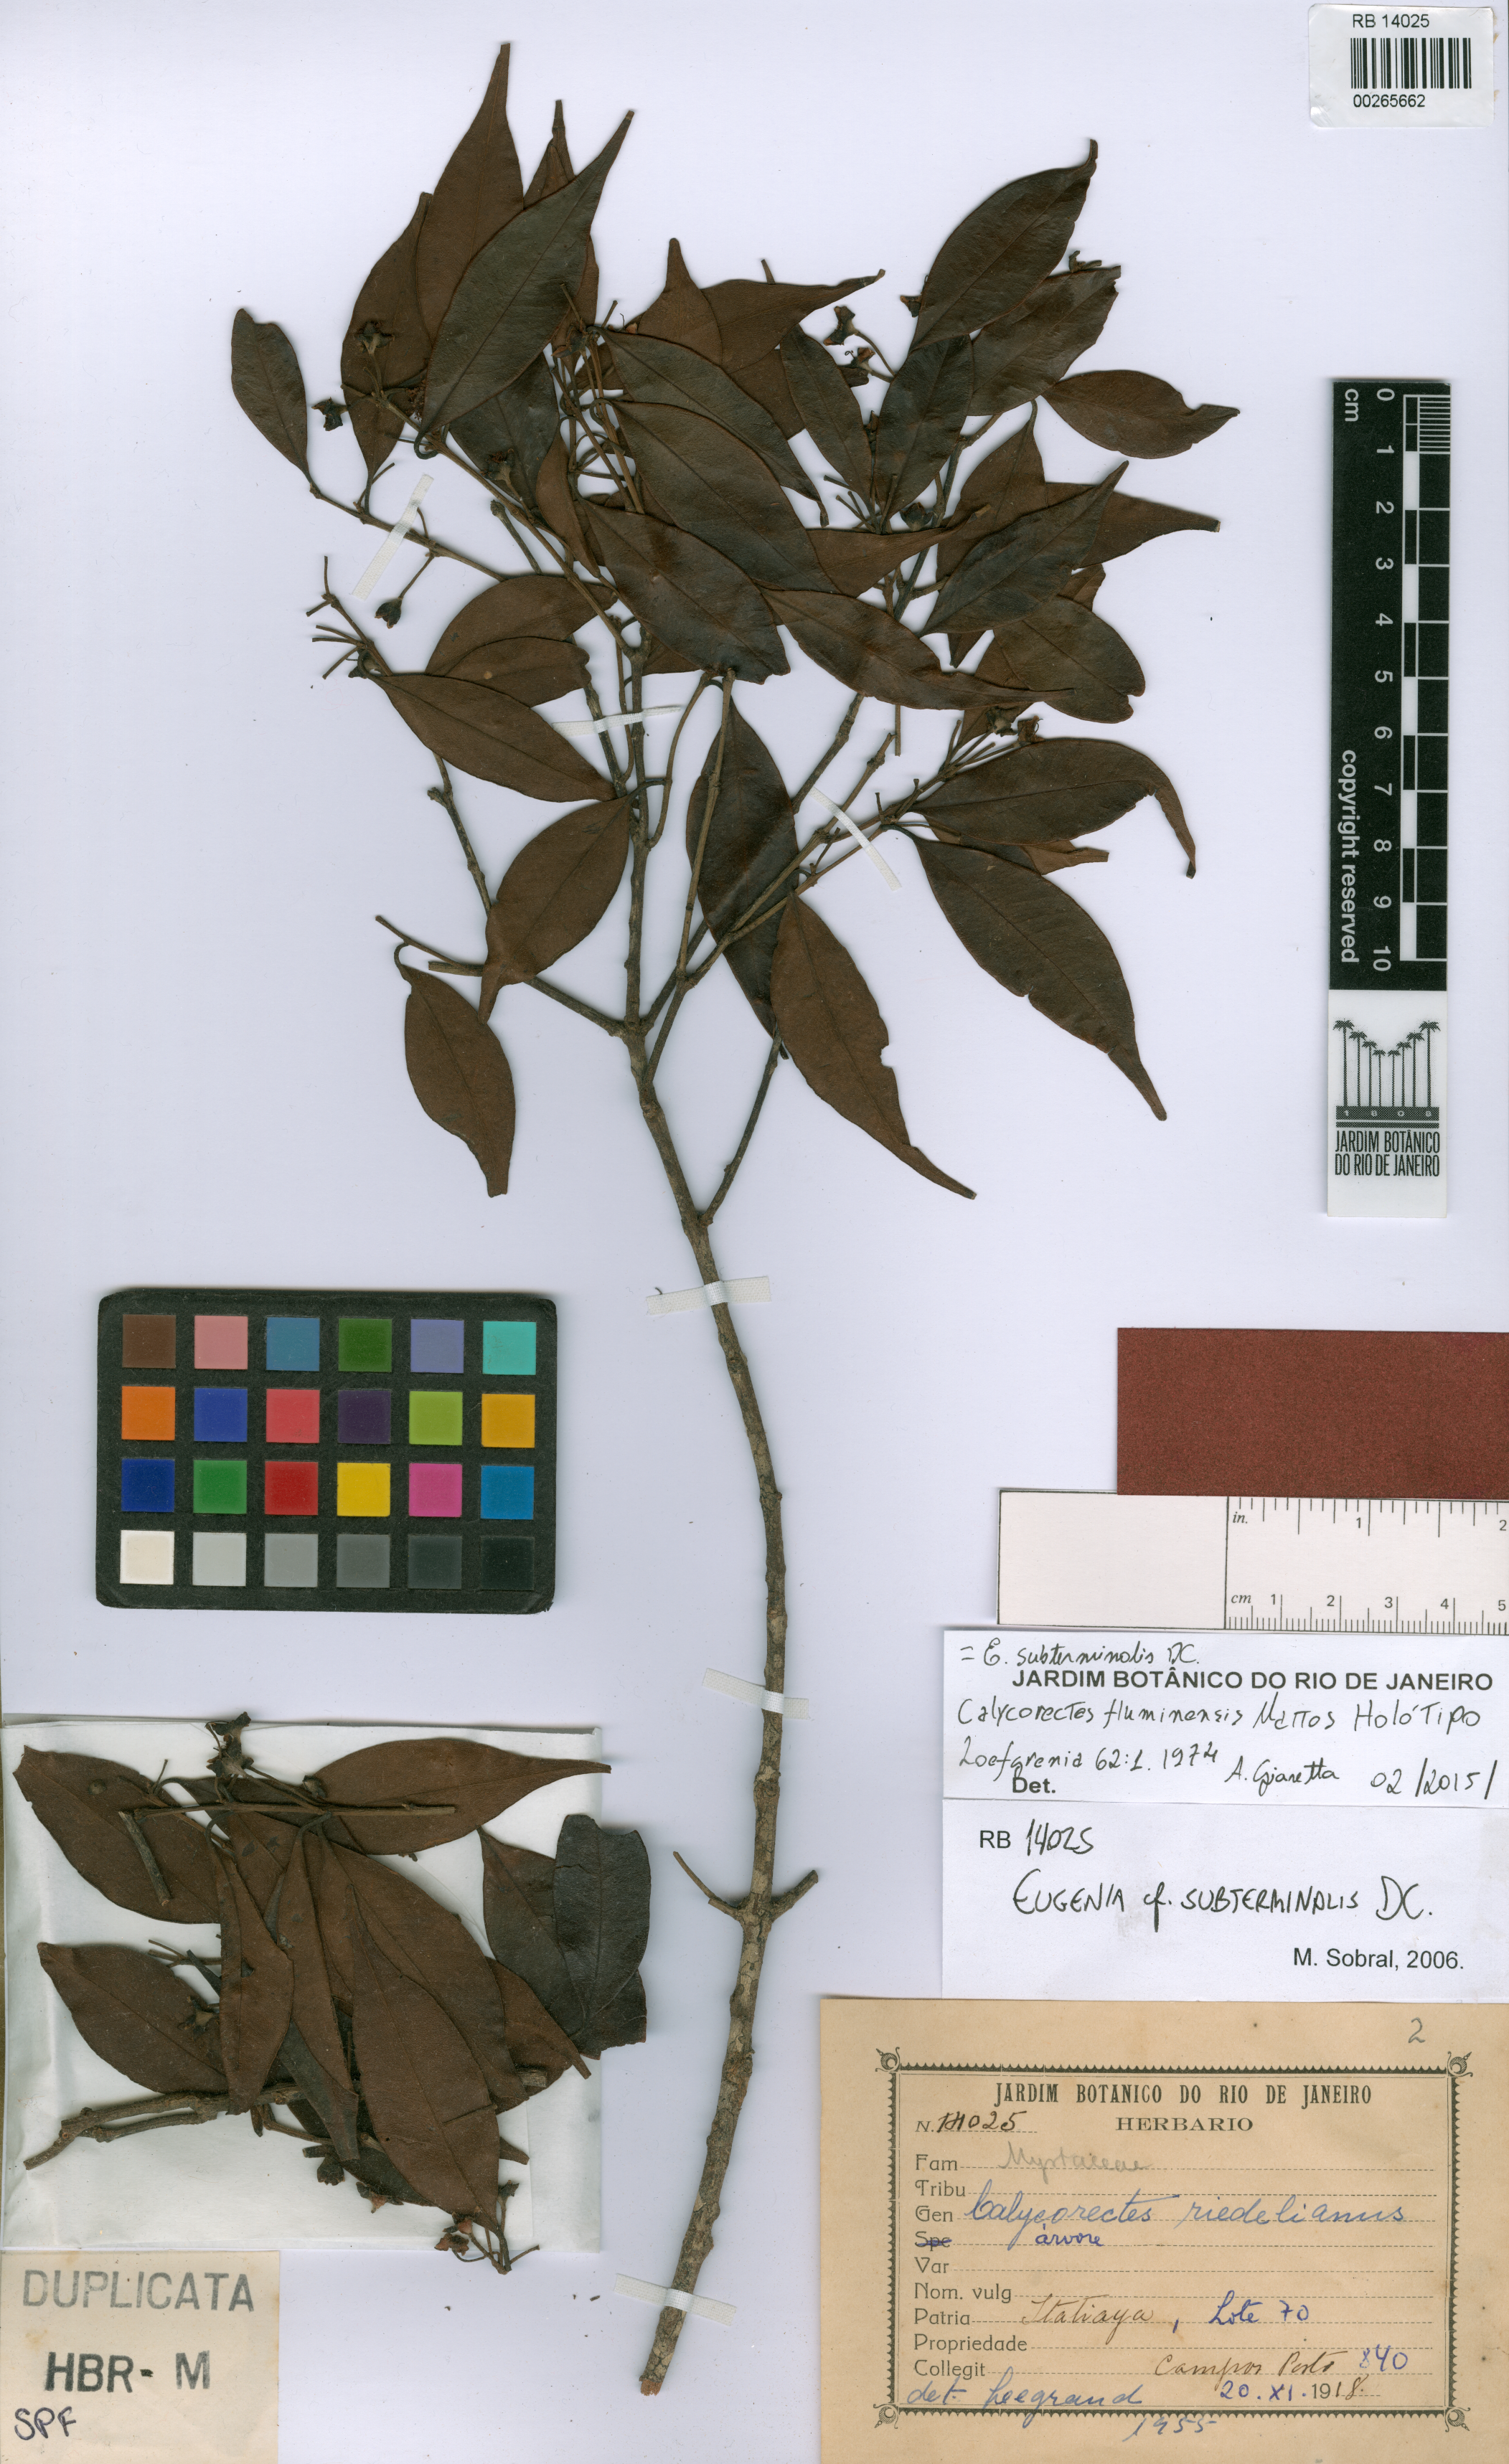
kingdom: Plantae
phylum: Tracheophyta
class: Magnoliopsida
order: Myrtales
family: Myrtaceae
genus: Calycorectes
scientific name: Calycorectes fluminensis
